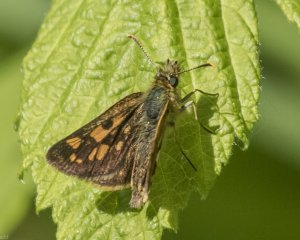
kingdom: Animalia
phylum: Arthropoda
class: Insecta
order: Lepidoptera
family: Hesperiidae
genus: Carterocephalus
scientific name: Carterocephalus palaemon
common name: Chequered Skipper
